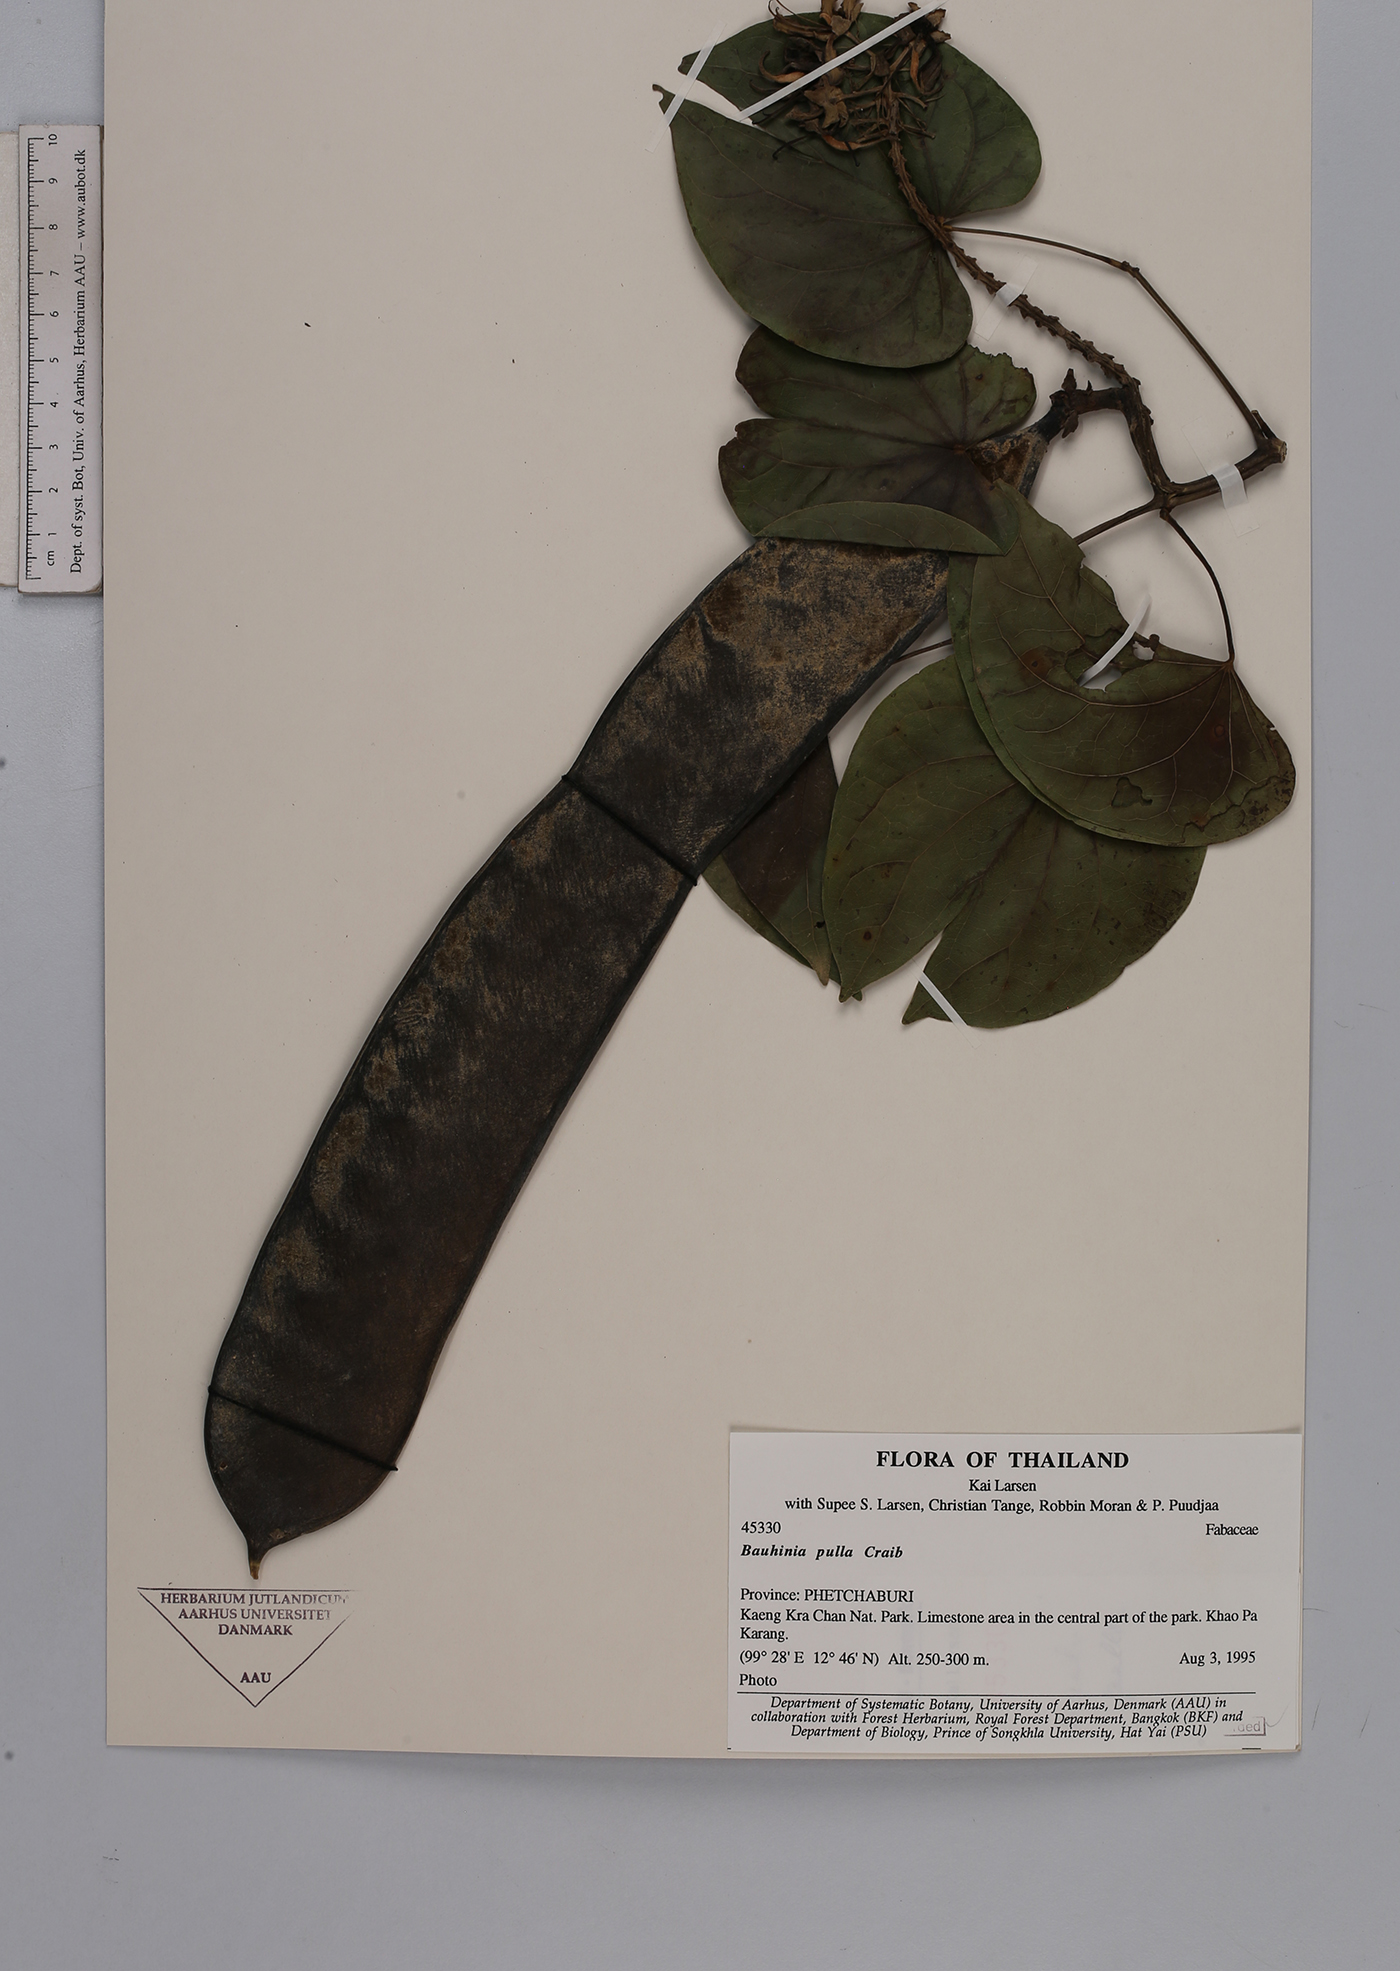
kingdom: Plantae
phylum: Tracheophyta
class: Magnoliopsida
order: Fabales
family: Fabaceae
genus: Phanera
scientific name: Phanera pulla
